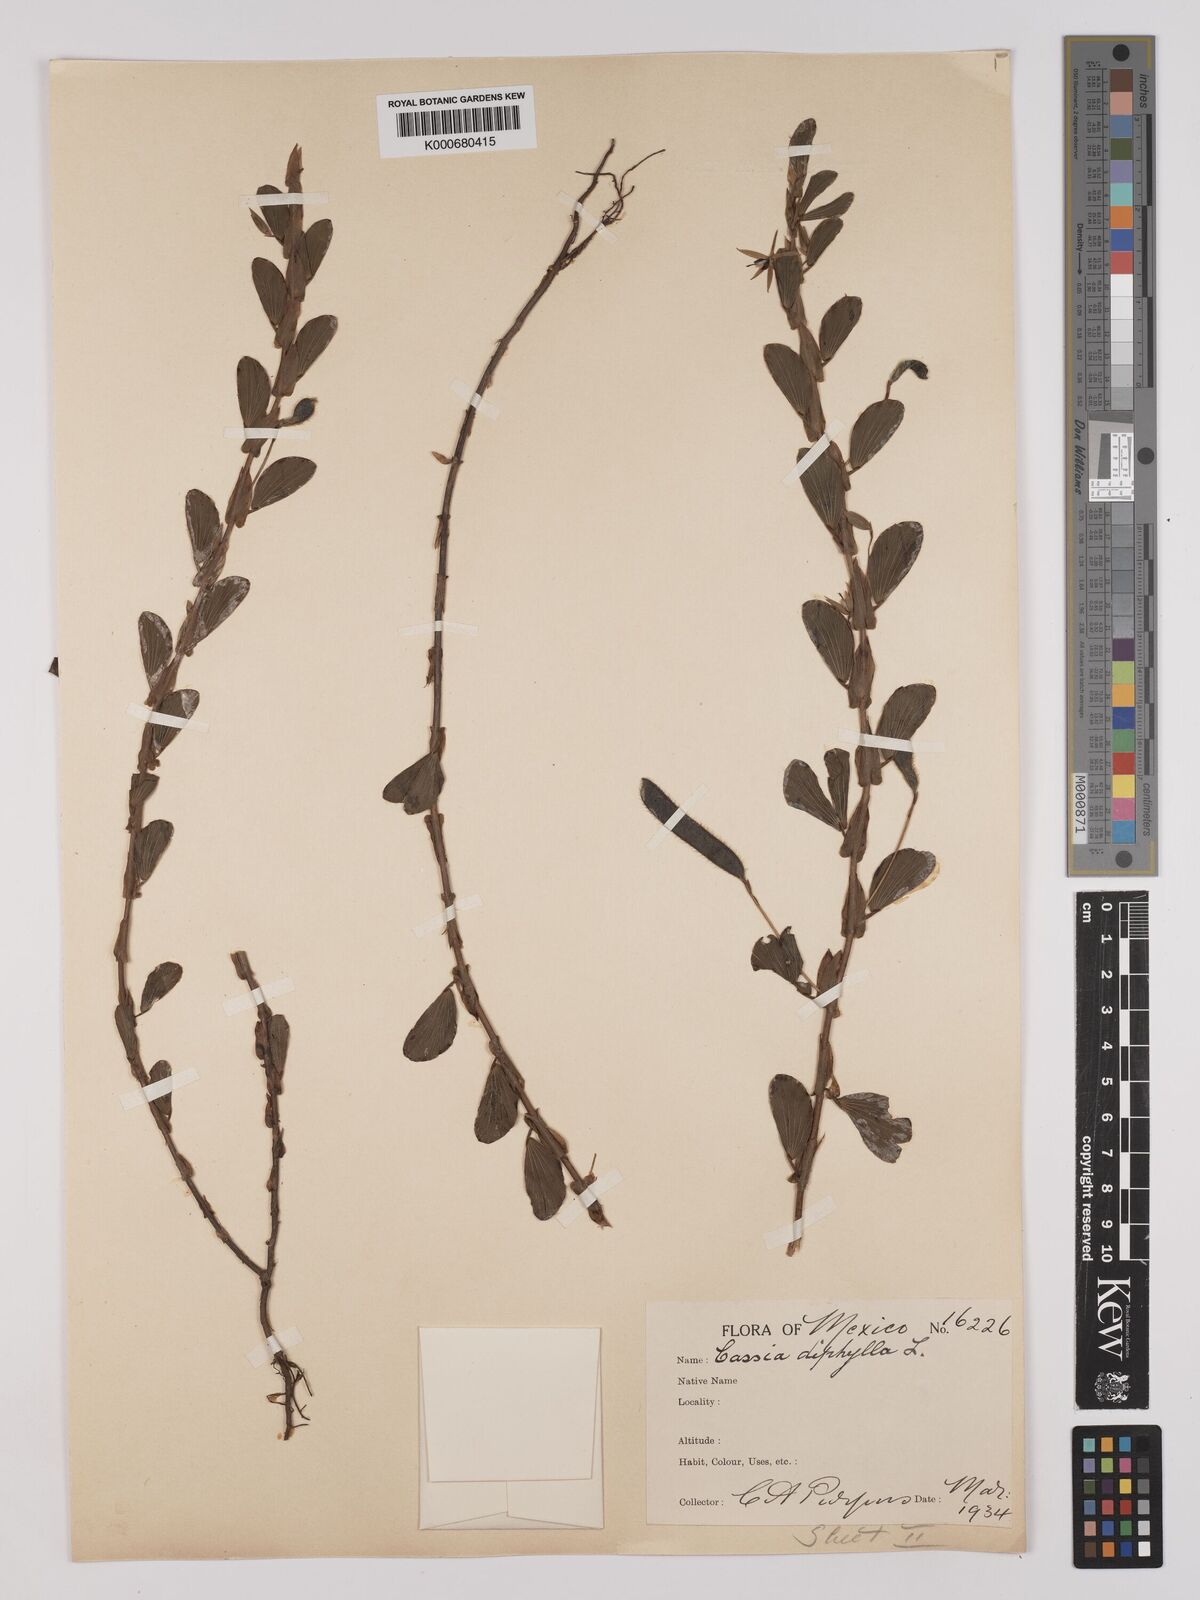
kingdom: Plantae
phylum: Tracheophyta
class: Magnoliopsida
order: Fabales
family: Fabaceae
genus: Chamaecrista
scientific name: Chamaecrista diphylla
